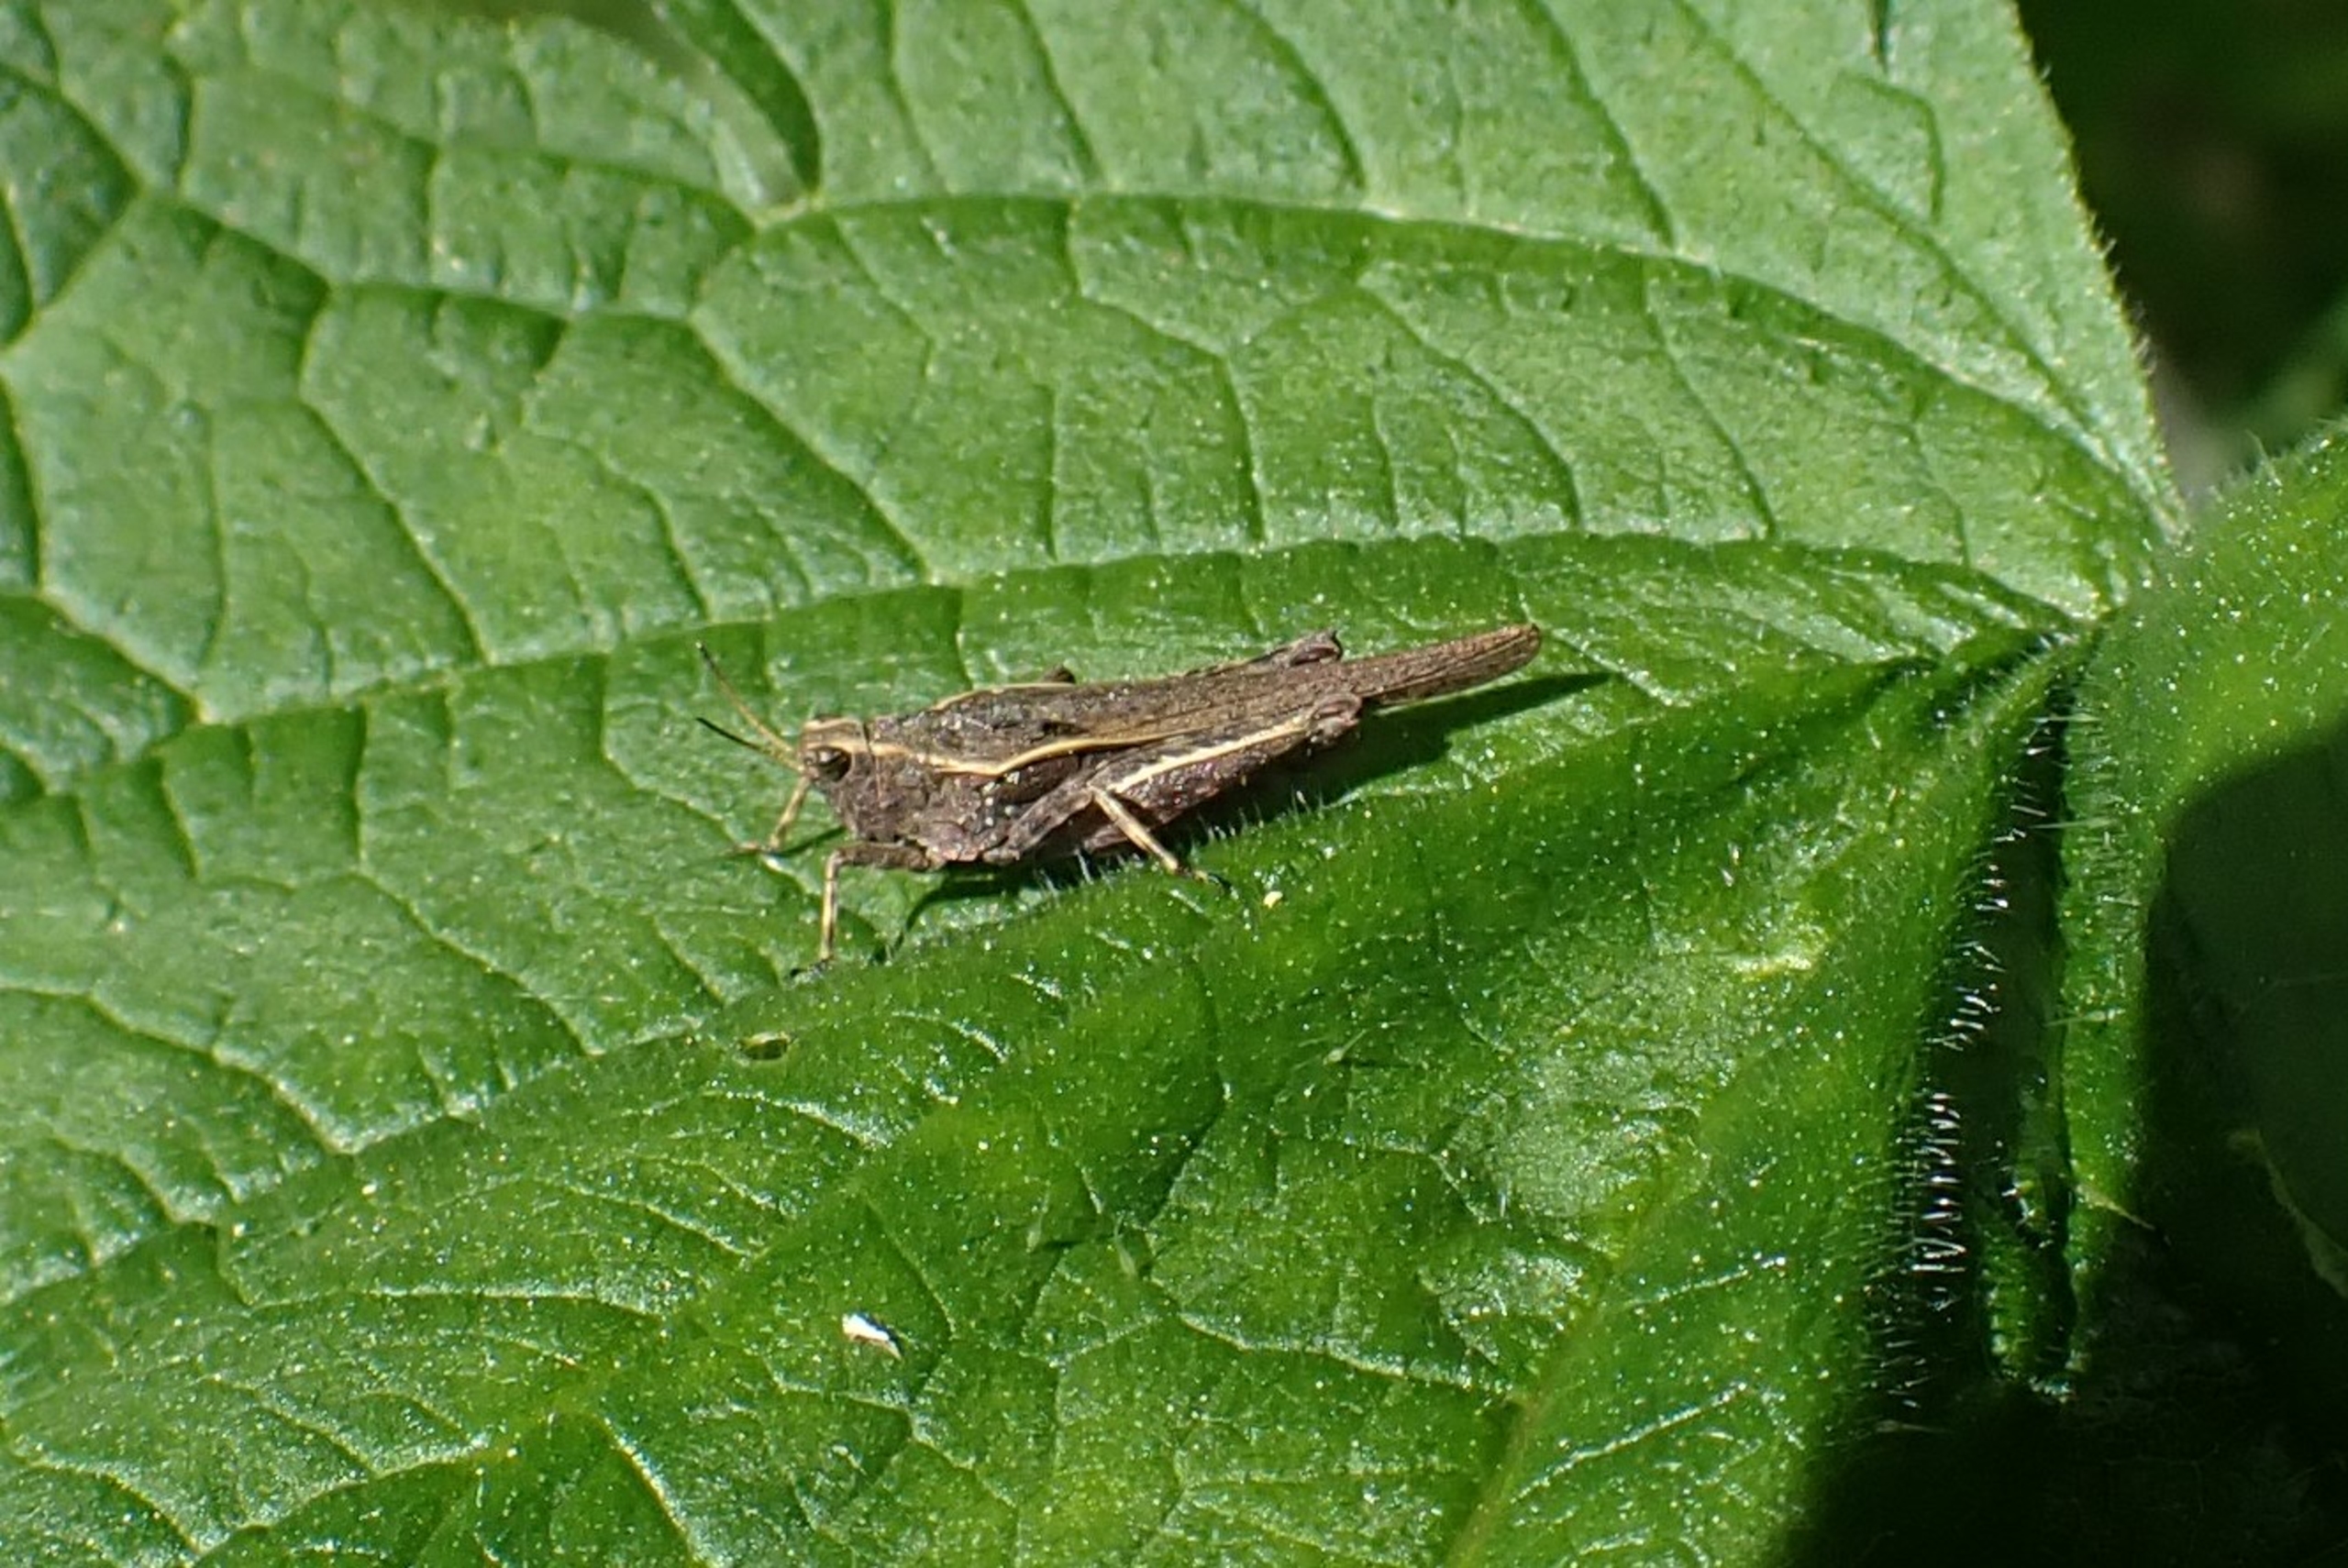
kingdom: Animalia
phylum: Arthropoda
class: Insecta
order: Orthoptera
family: Tetrigidae
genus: Tetrix
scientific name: Tetrix subulata
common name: Sump-torngræshoppe
